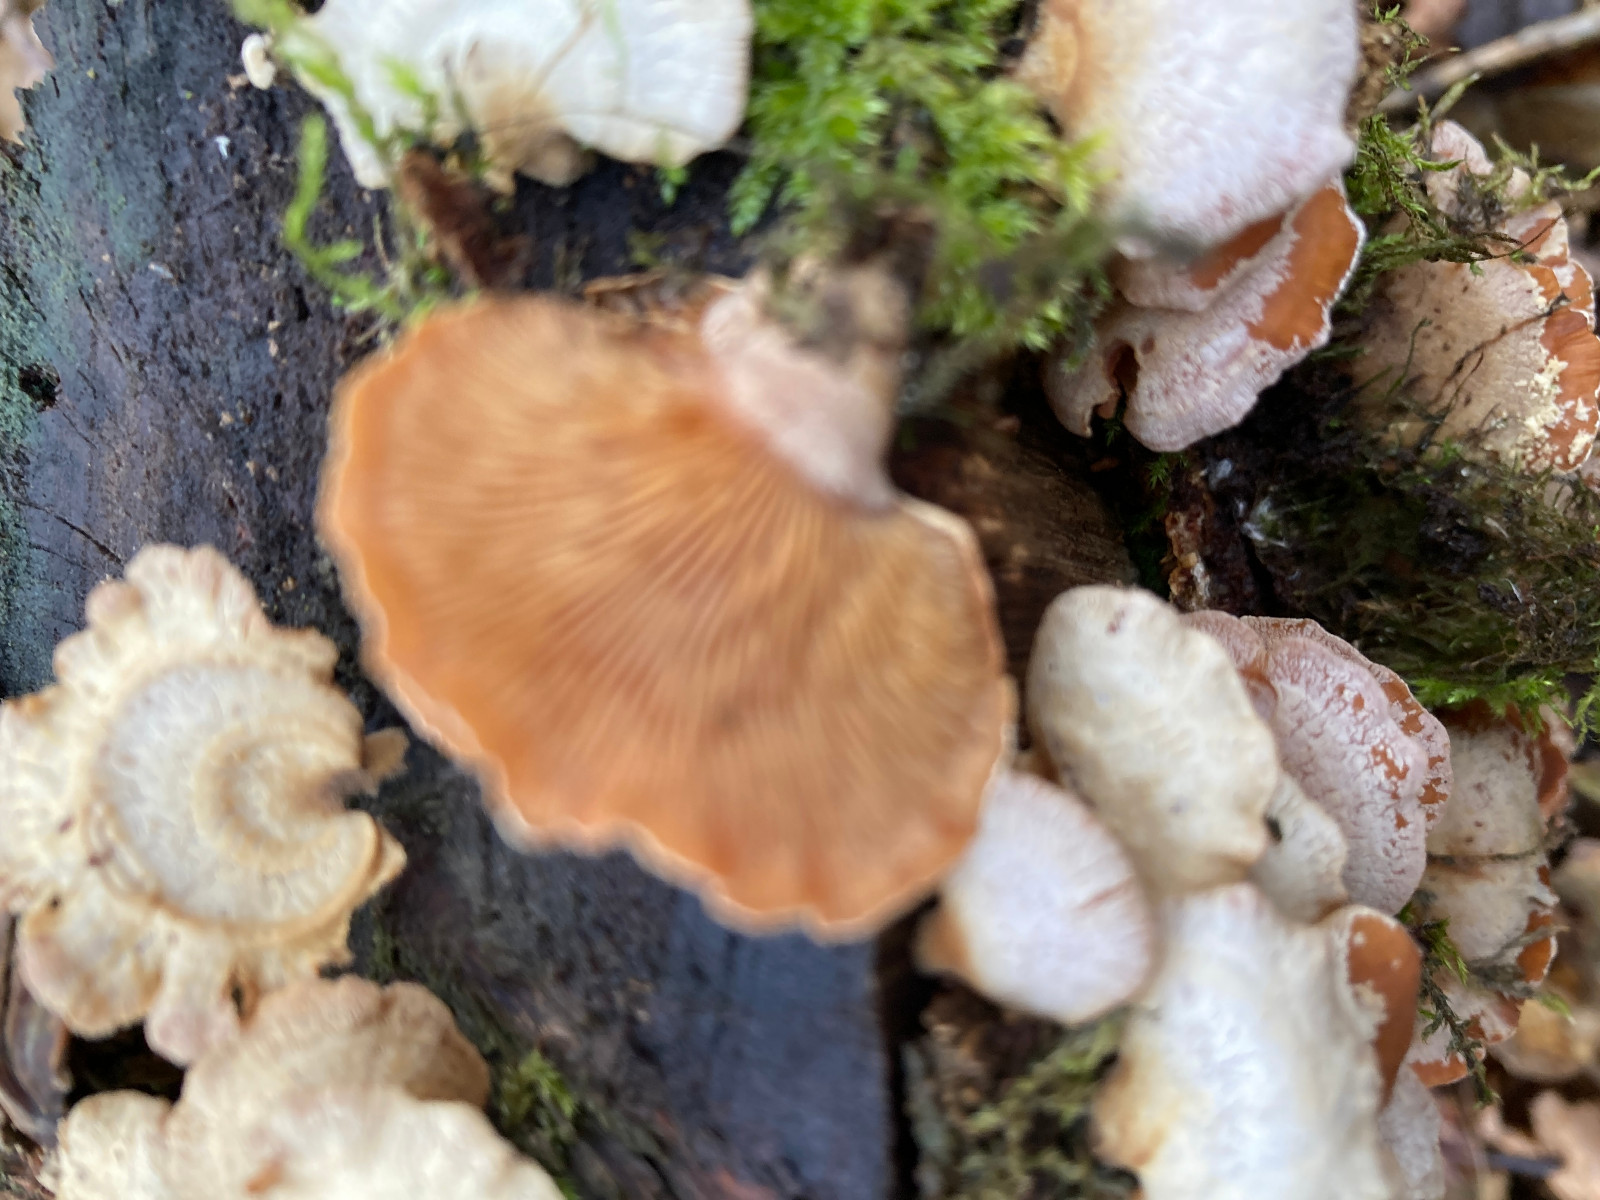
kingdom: Fungi
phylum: Basidiomycota
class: Agaricomycetes
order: Agaricales
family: Mycenaceae
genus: Panellus
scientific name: Panellus stipticus
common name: kliddet epaulethat
